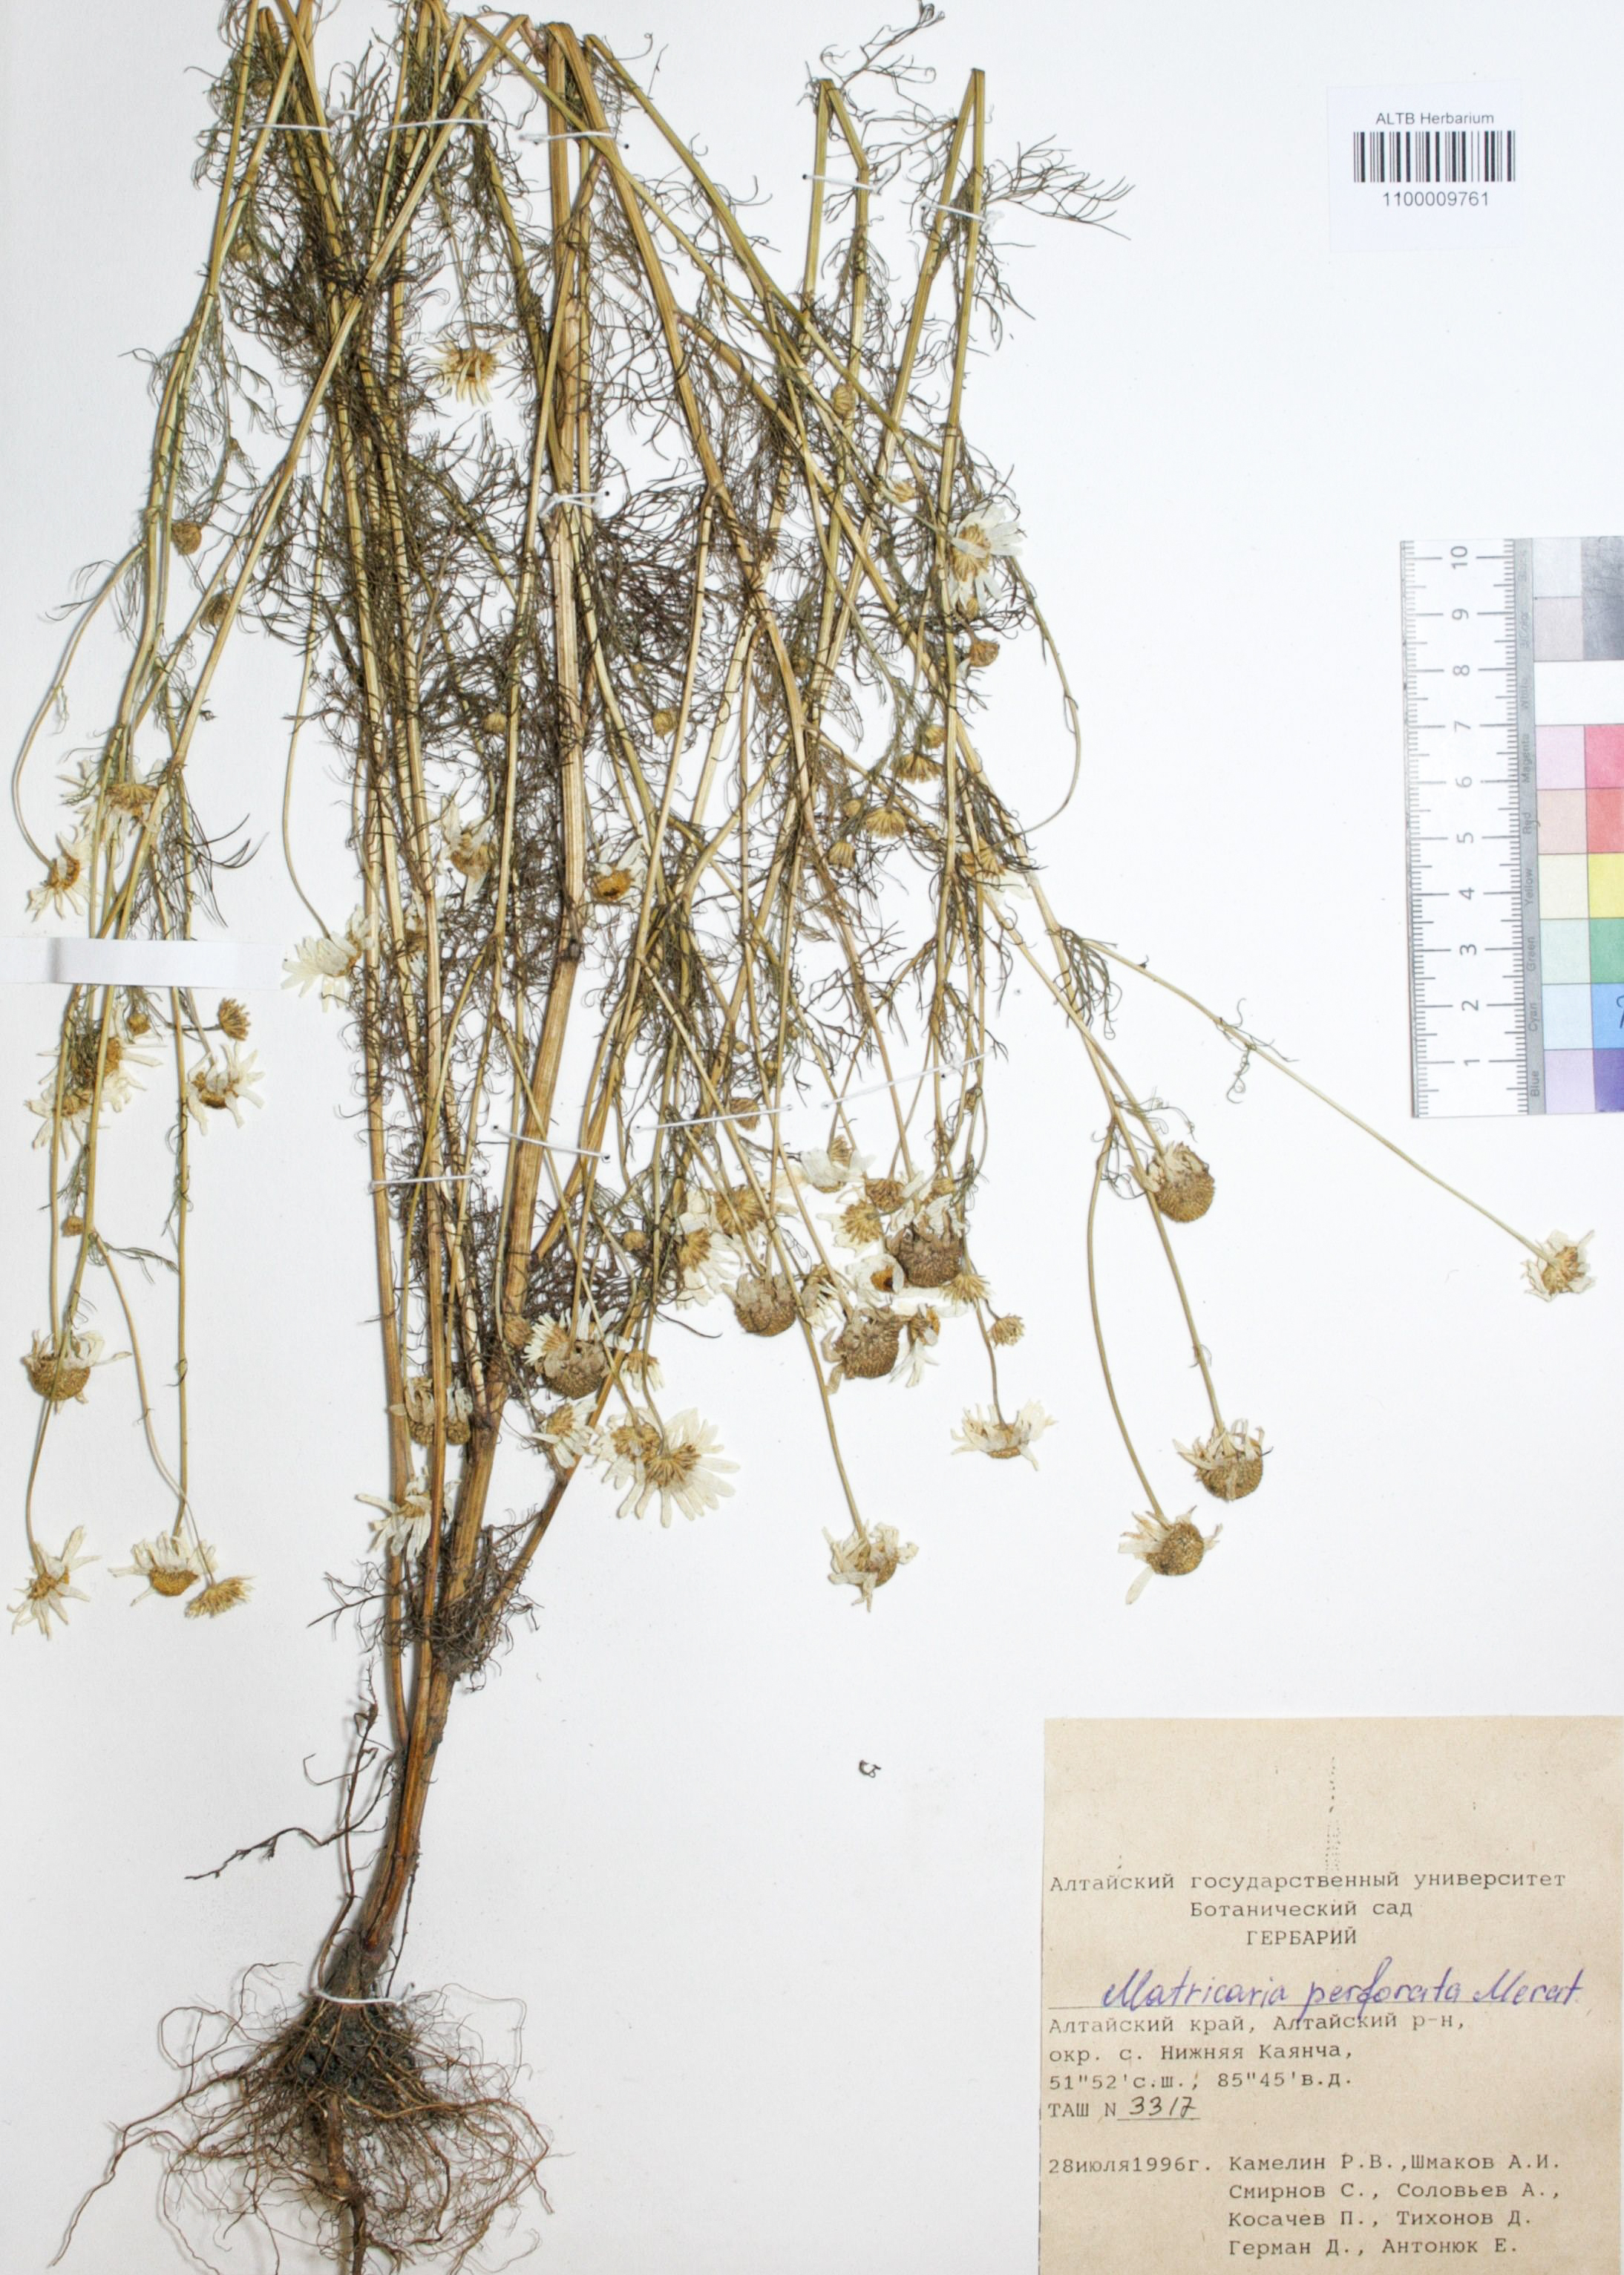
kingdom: Plantae
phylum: Tracheophyta
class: Magnoliopsida
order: Asterales
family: Asteraceae
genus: Tripleurospermum
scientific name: Tripleurospermum inodorum
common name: Scentless mayweed
